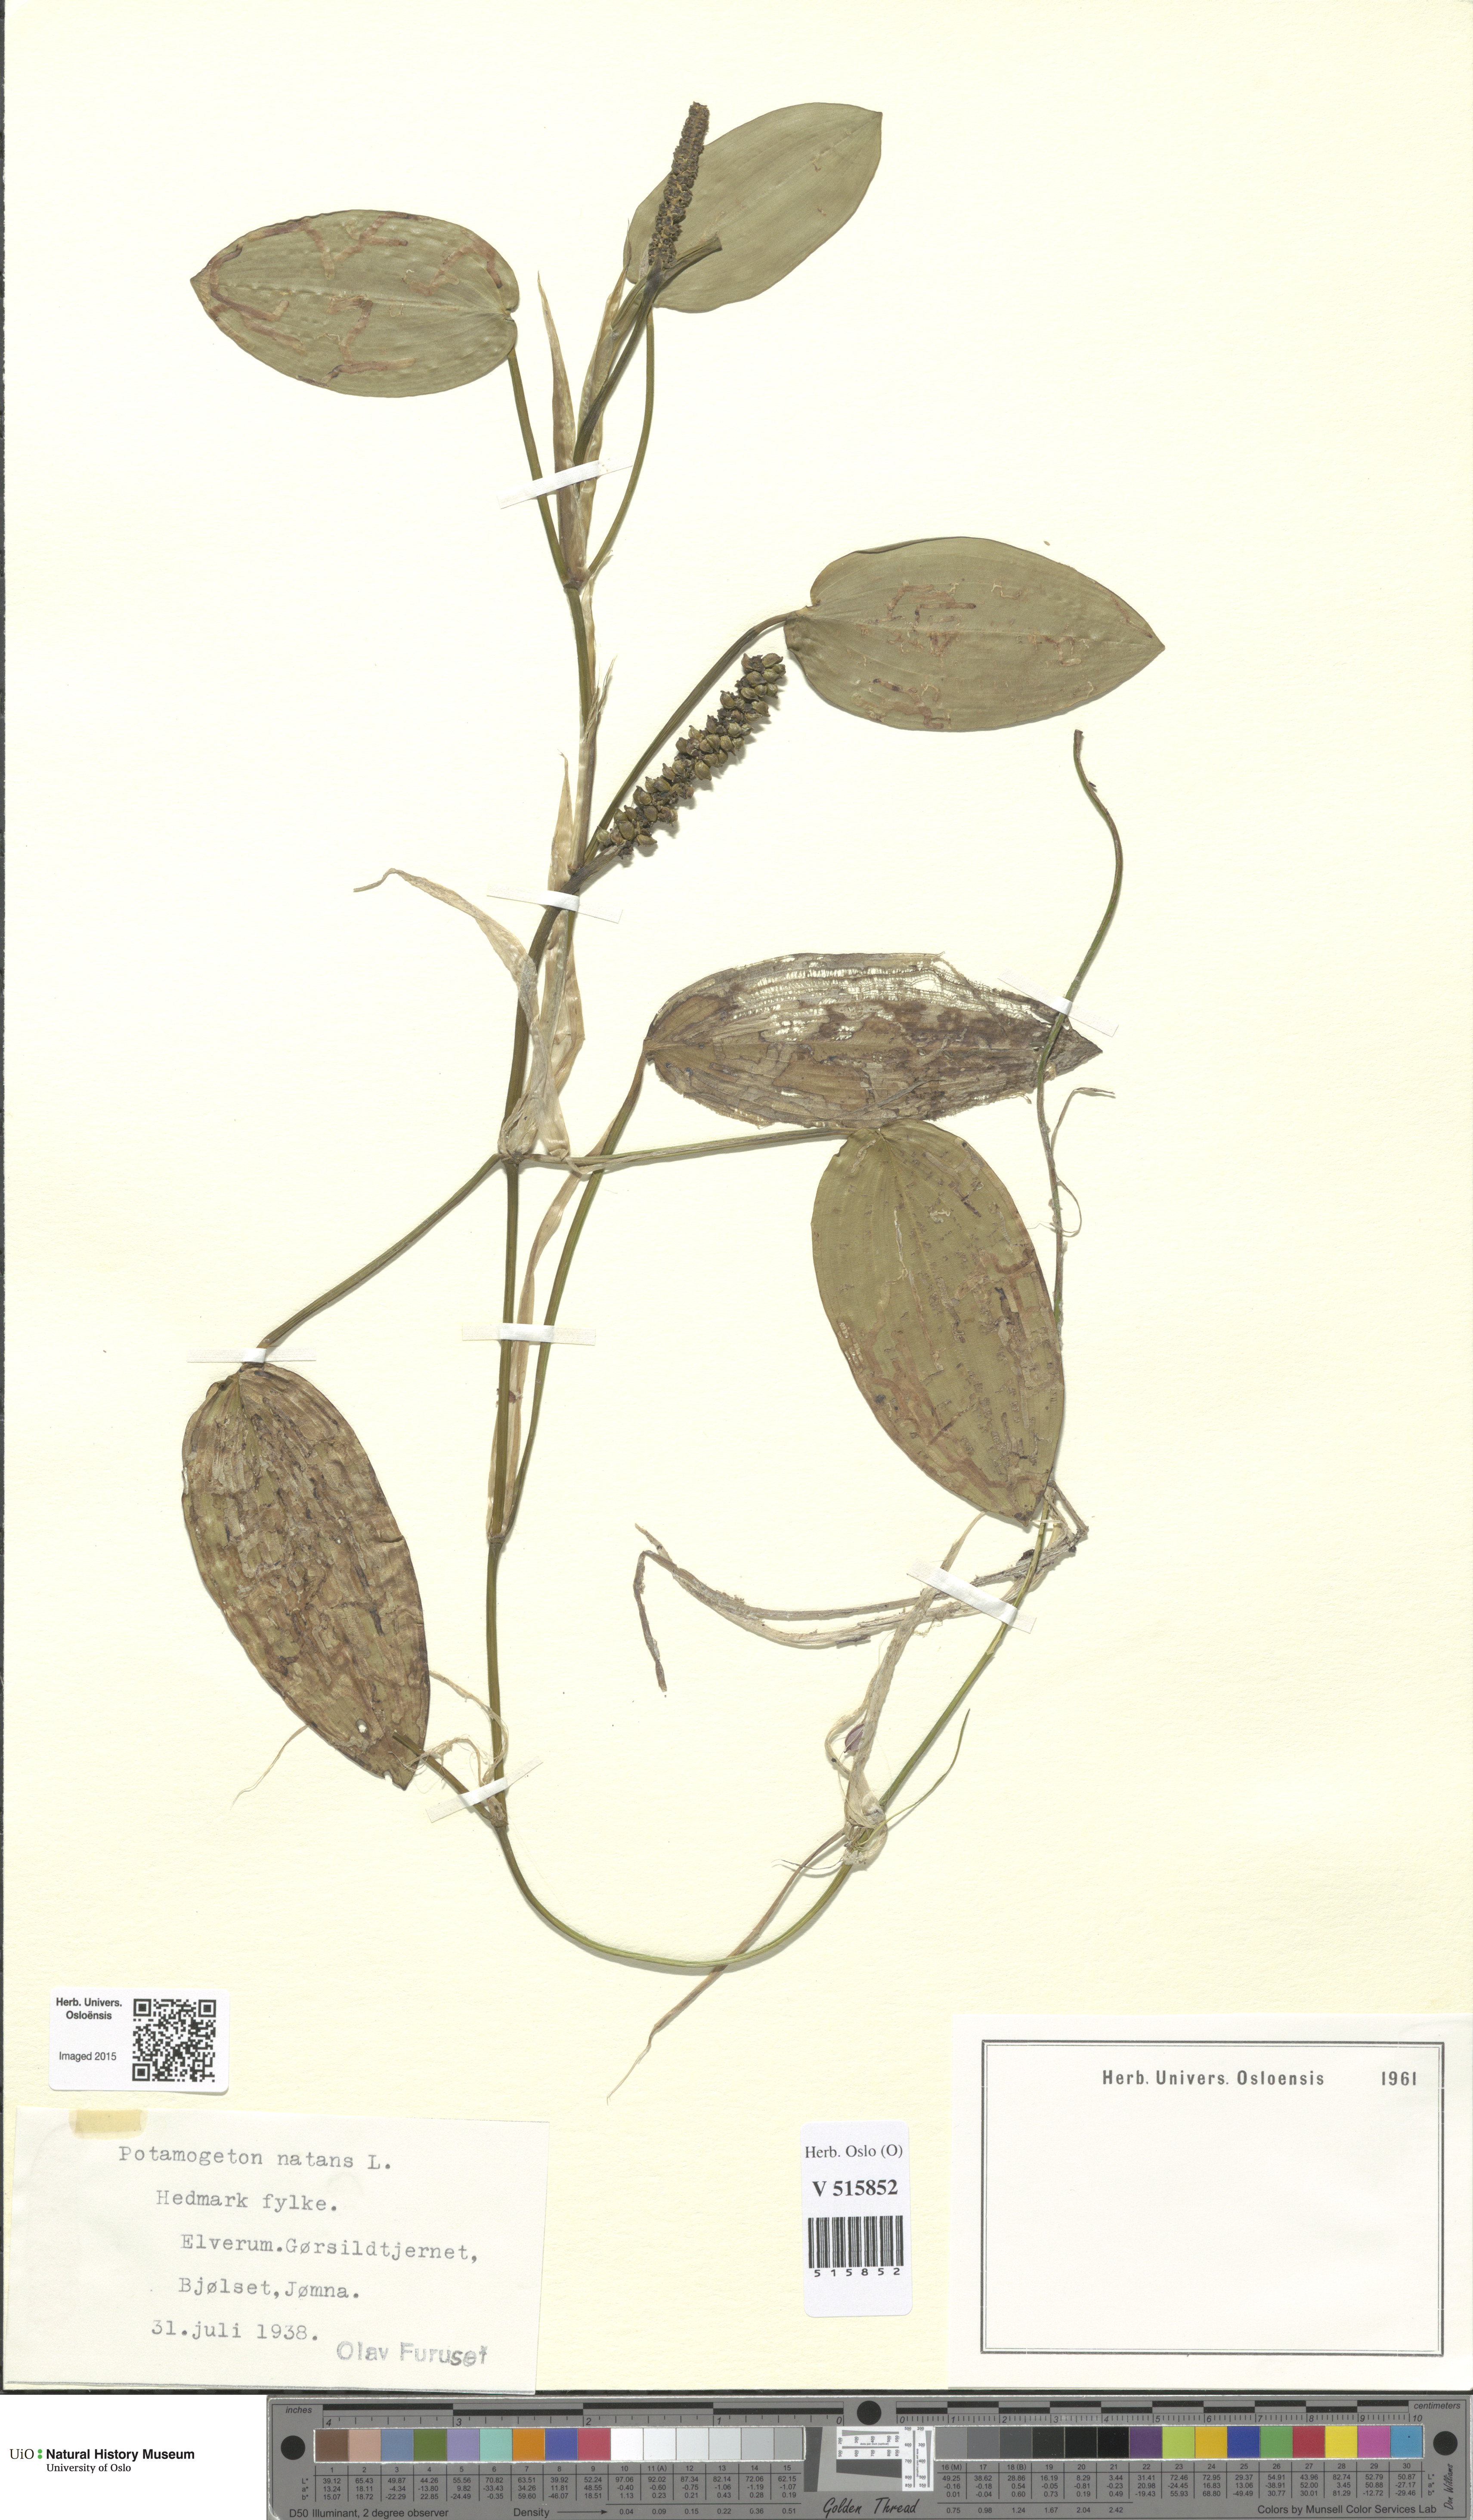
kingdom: Plantae
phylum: Tracheophyta
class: Liliopsida
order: Alismatales
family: Potamogetonaceae
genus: Potamogeton
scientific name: Potamogeton natans
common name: Broad-leaved pondweed
